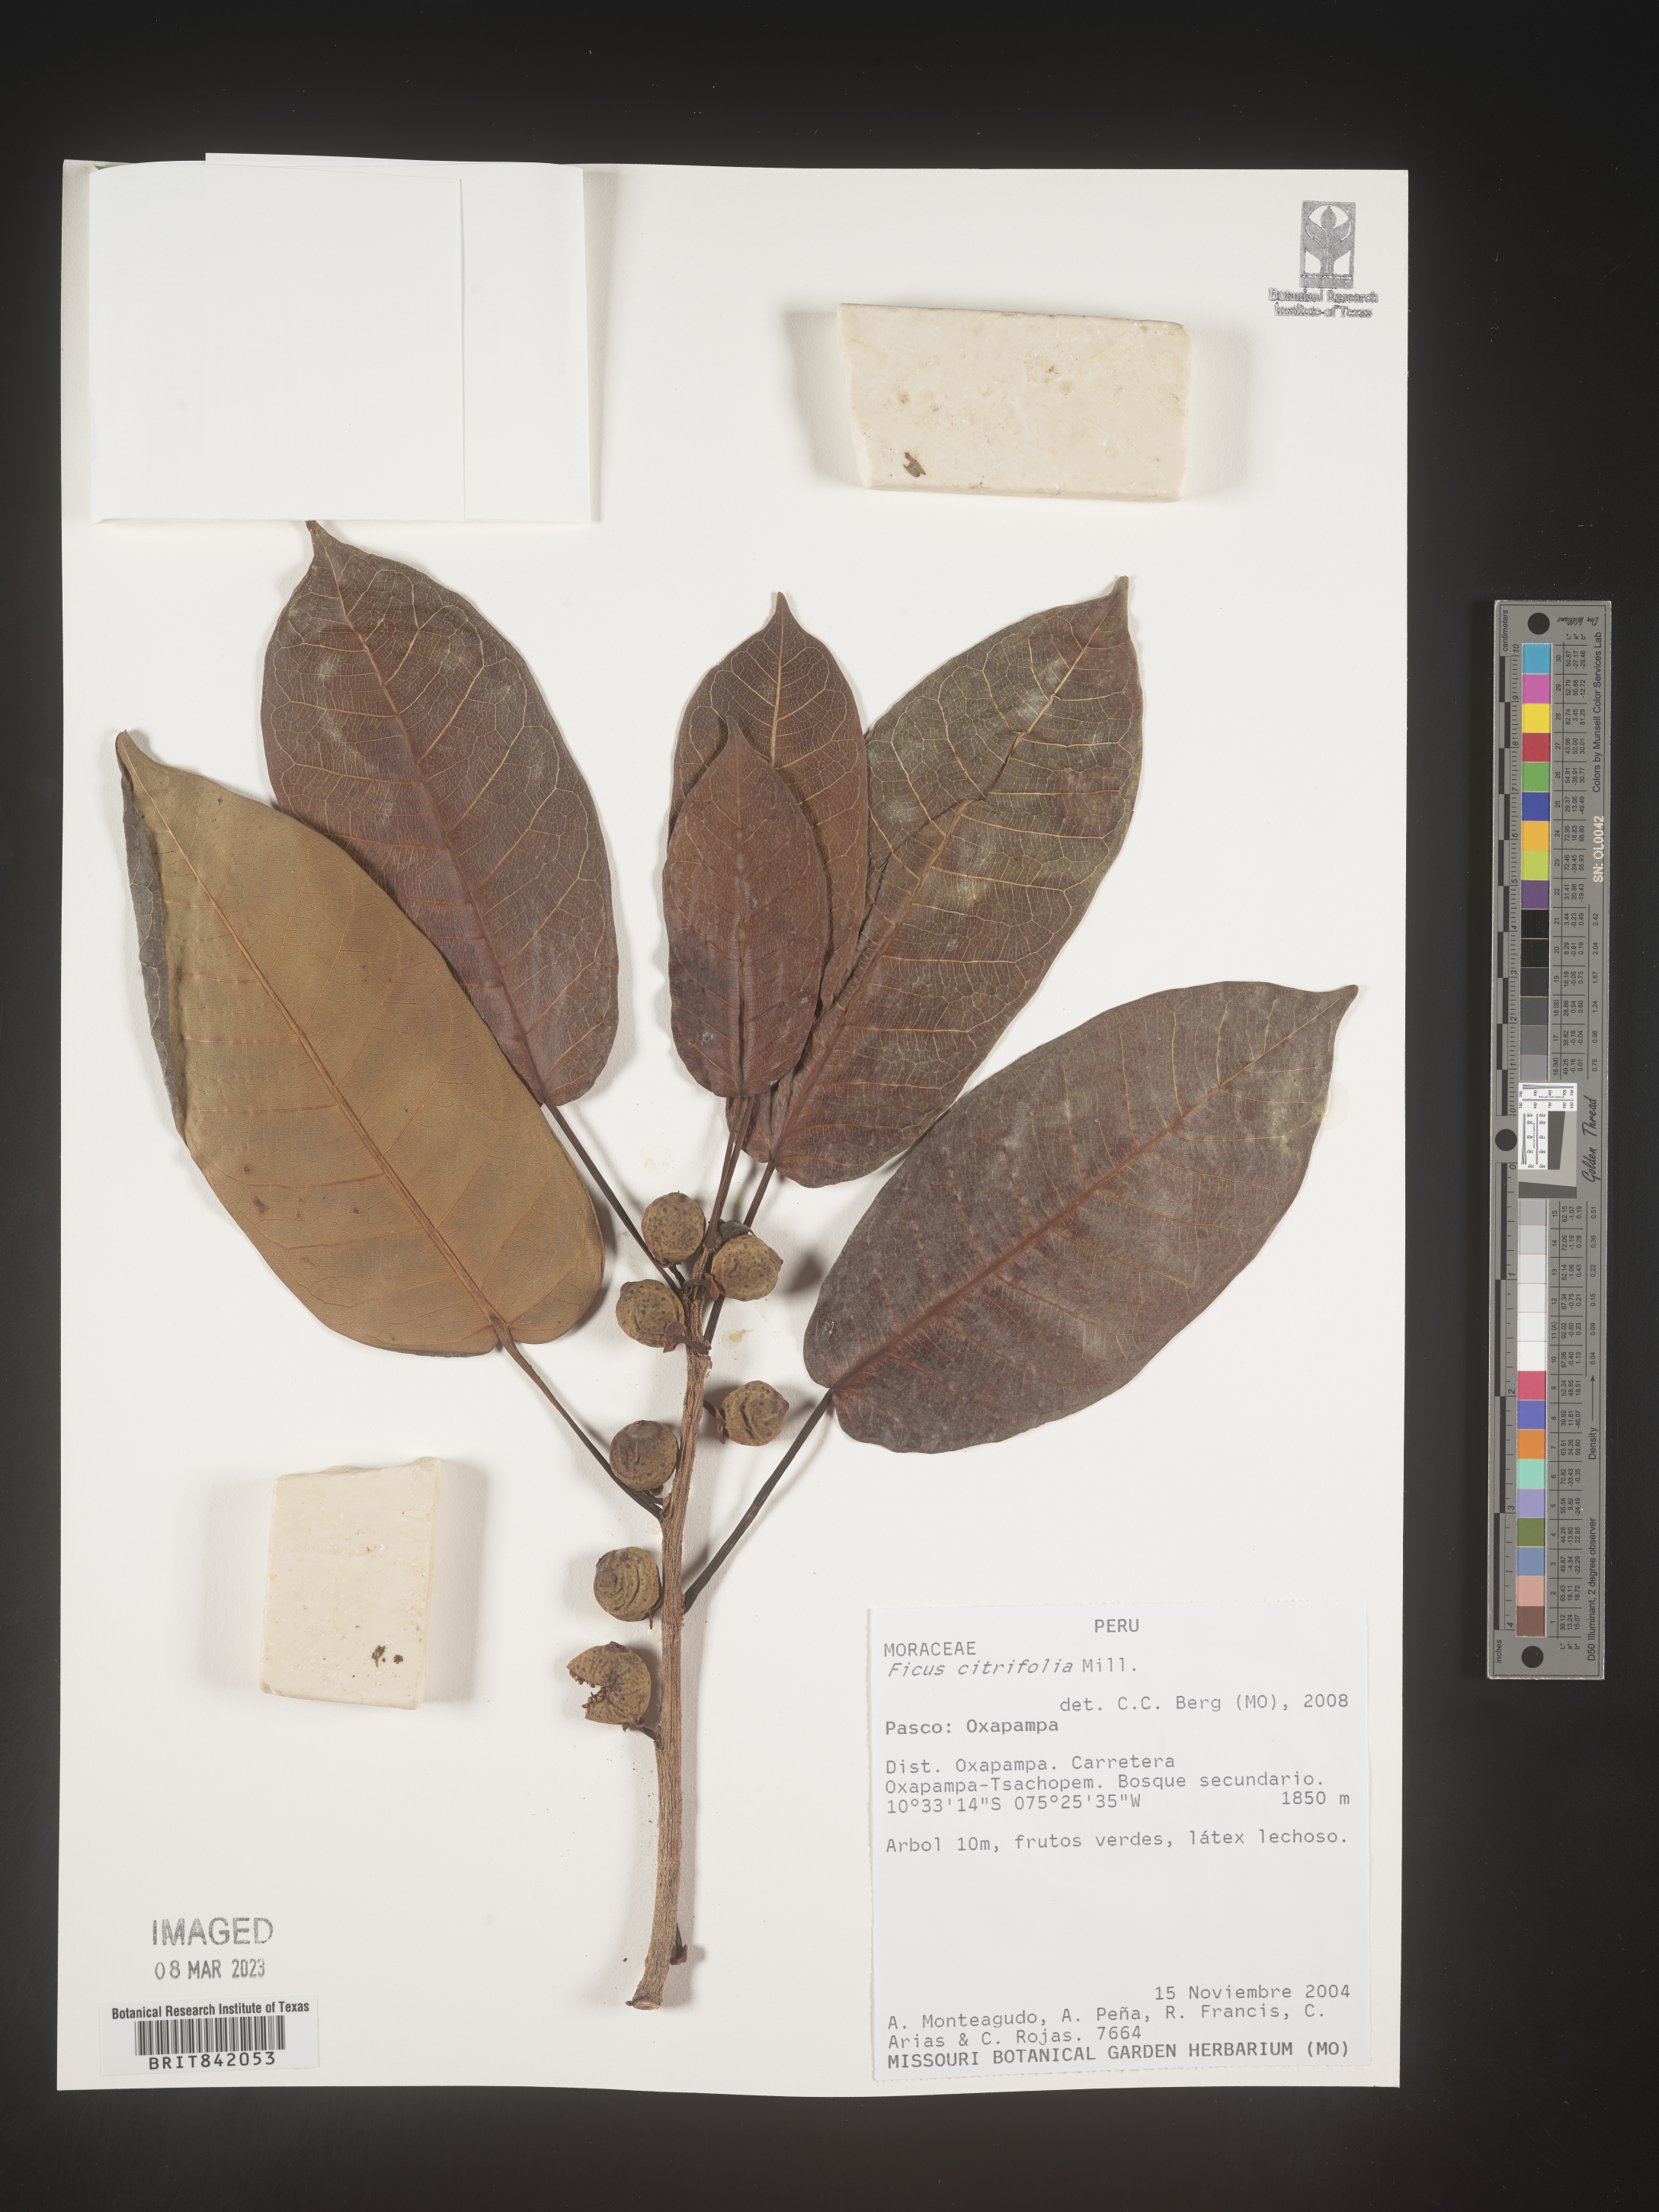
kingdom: Plantae
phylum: Tracheophyta
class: Magnoliopsida
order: Rosales
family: Moraceae
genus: Ficus
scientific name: Ficus citrifolia
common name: Strangler fig
